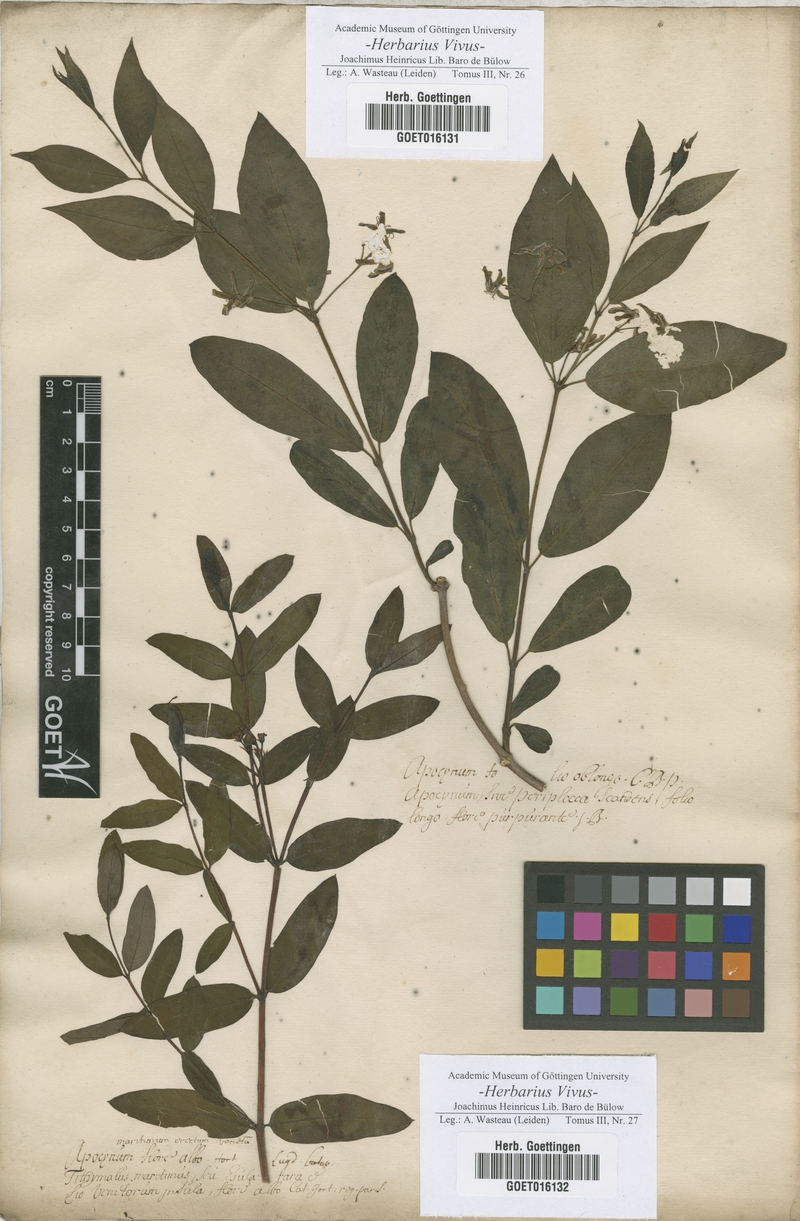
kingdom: Plantae
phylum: Tracheophyta
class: Magnoliopsida
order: Gentianales
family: Apocynaceae
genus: Periploca
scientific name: Periploca graeca
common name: Silkvine
